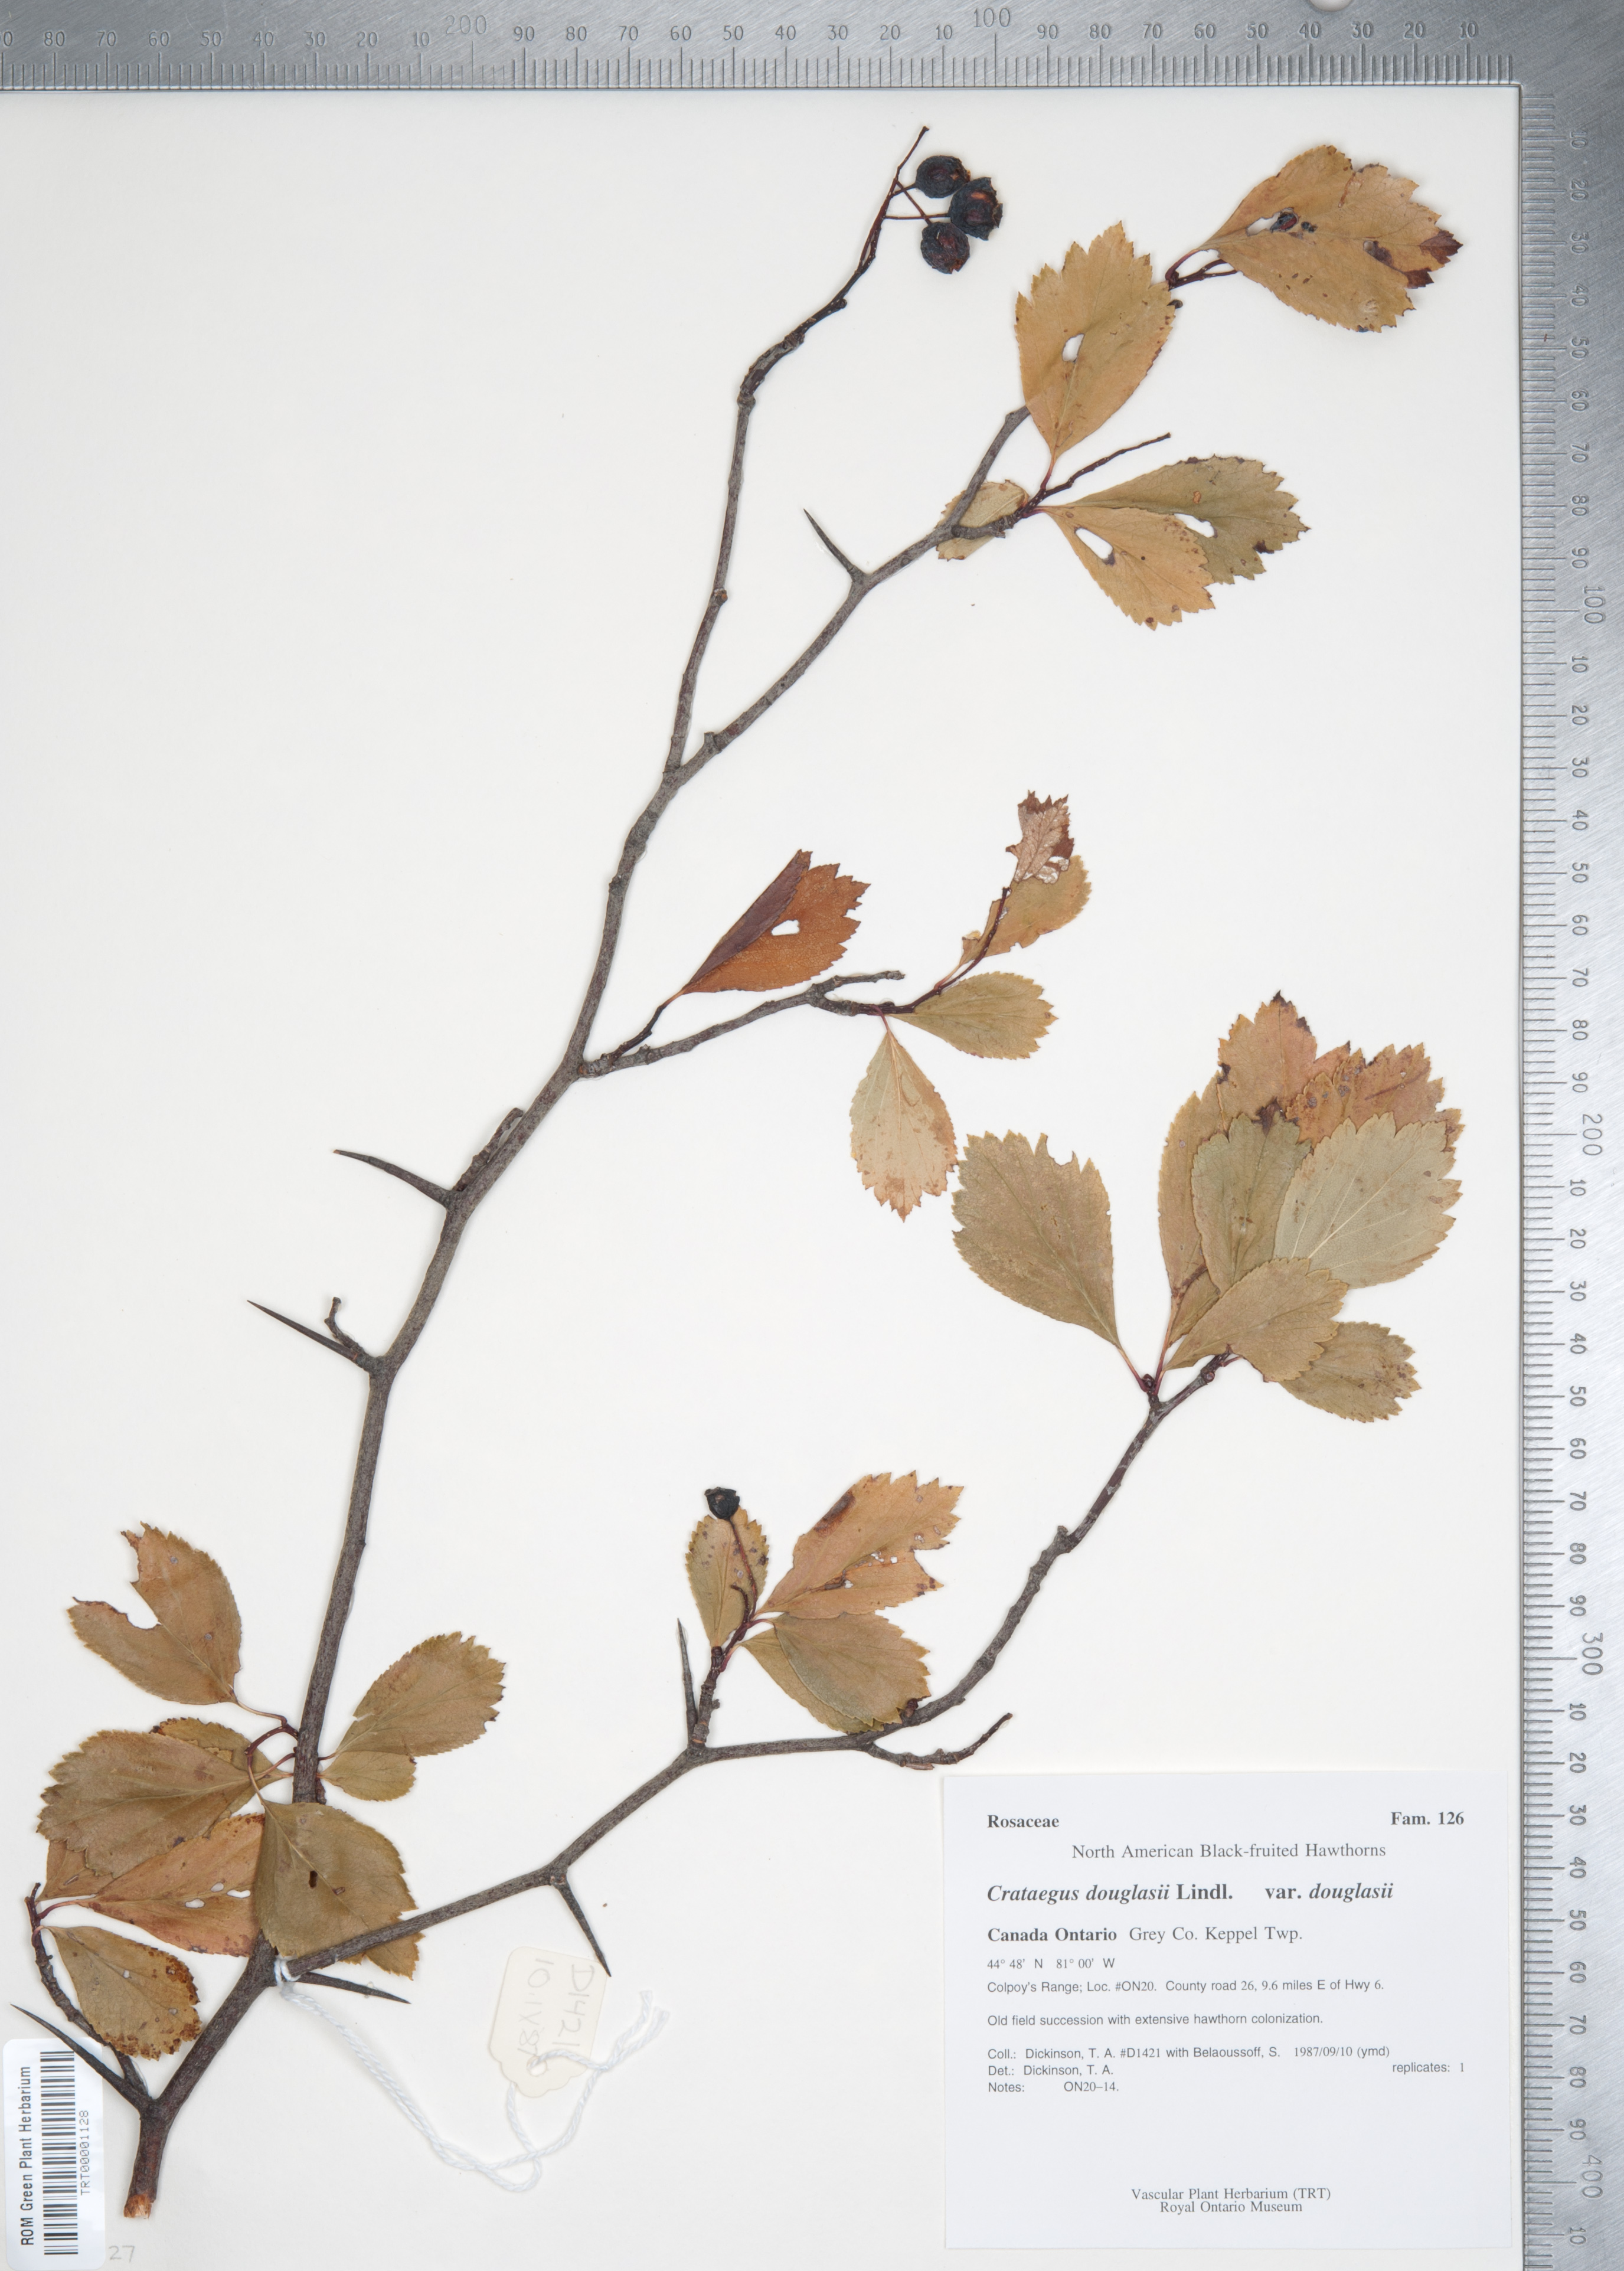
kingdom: Plantae
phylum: Tracheophyta
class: Magnoliopsida
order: Rosales
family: Rosaceae
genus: Crataegus
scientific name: Crataegus douglasii
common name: Black hawthorn
